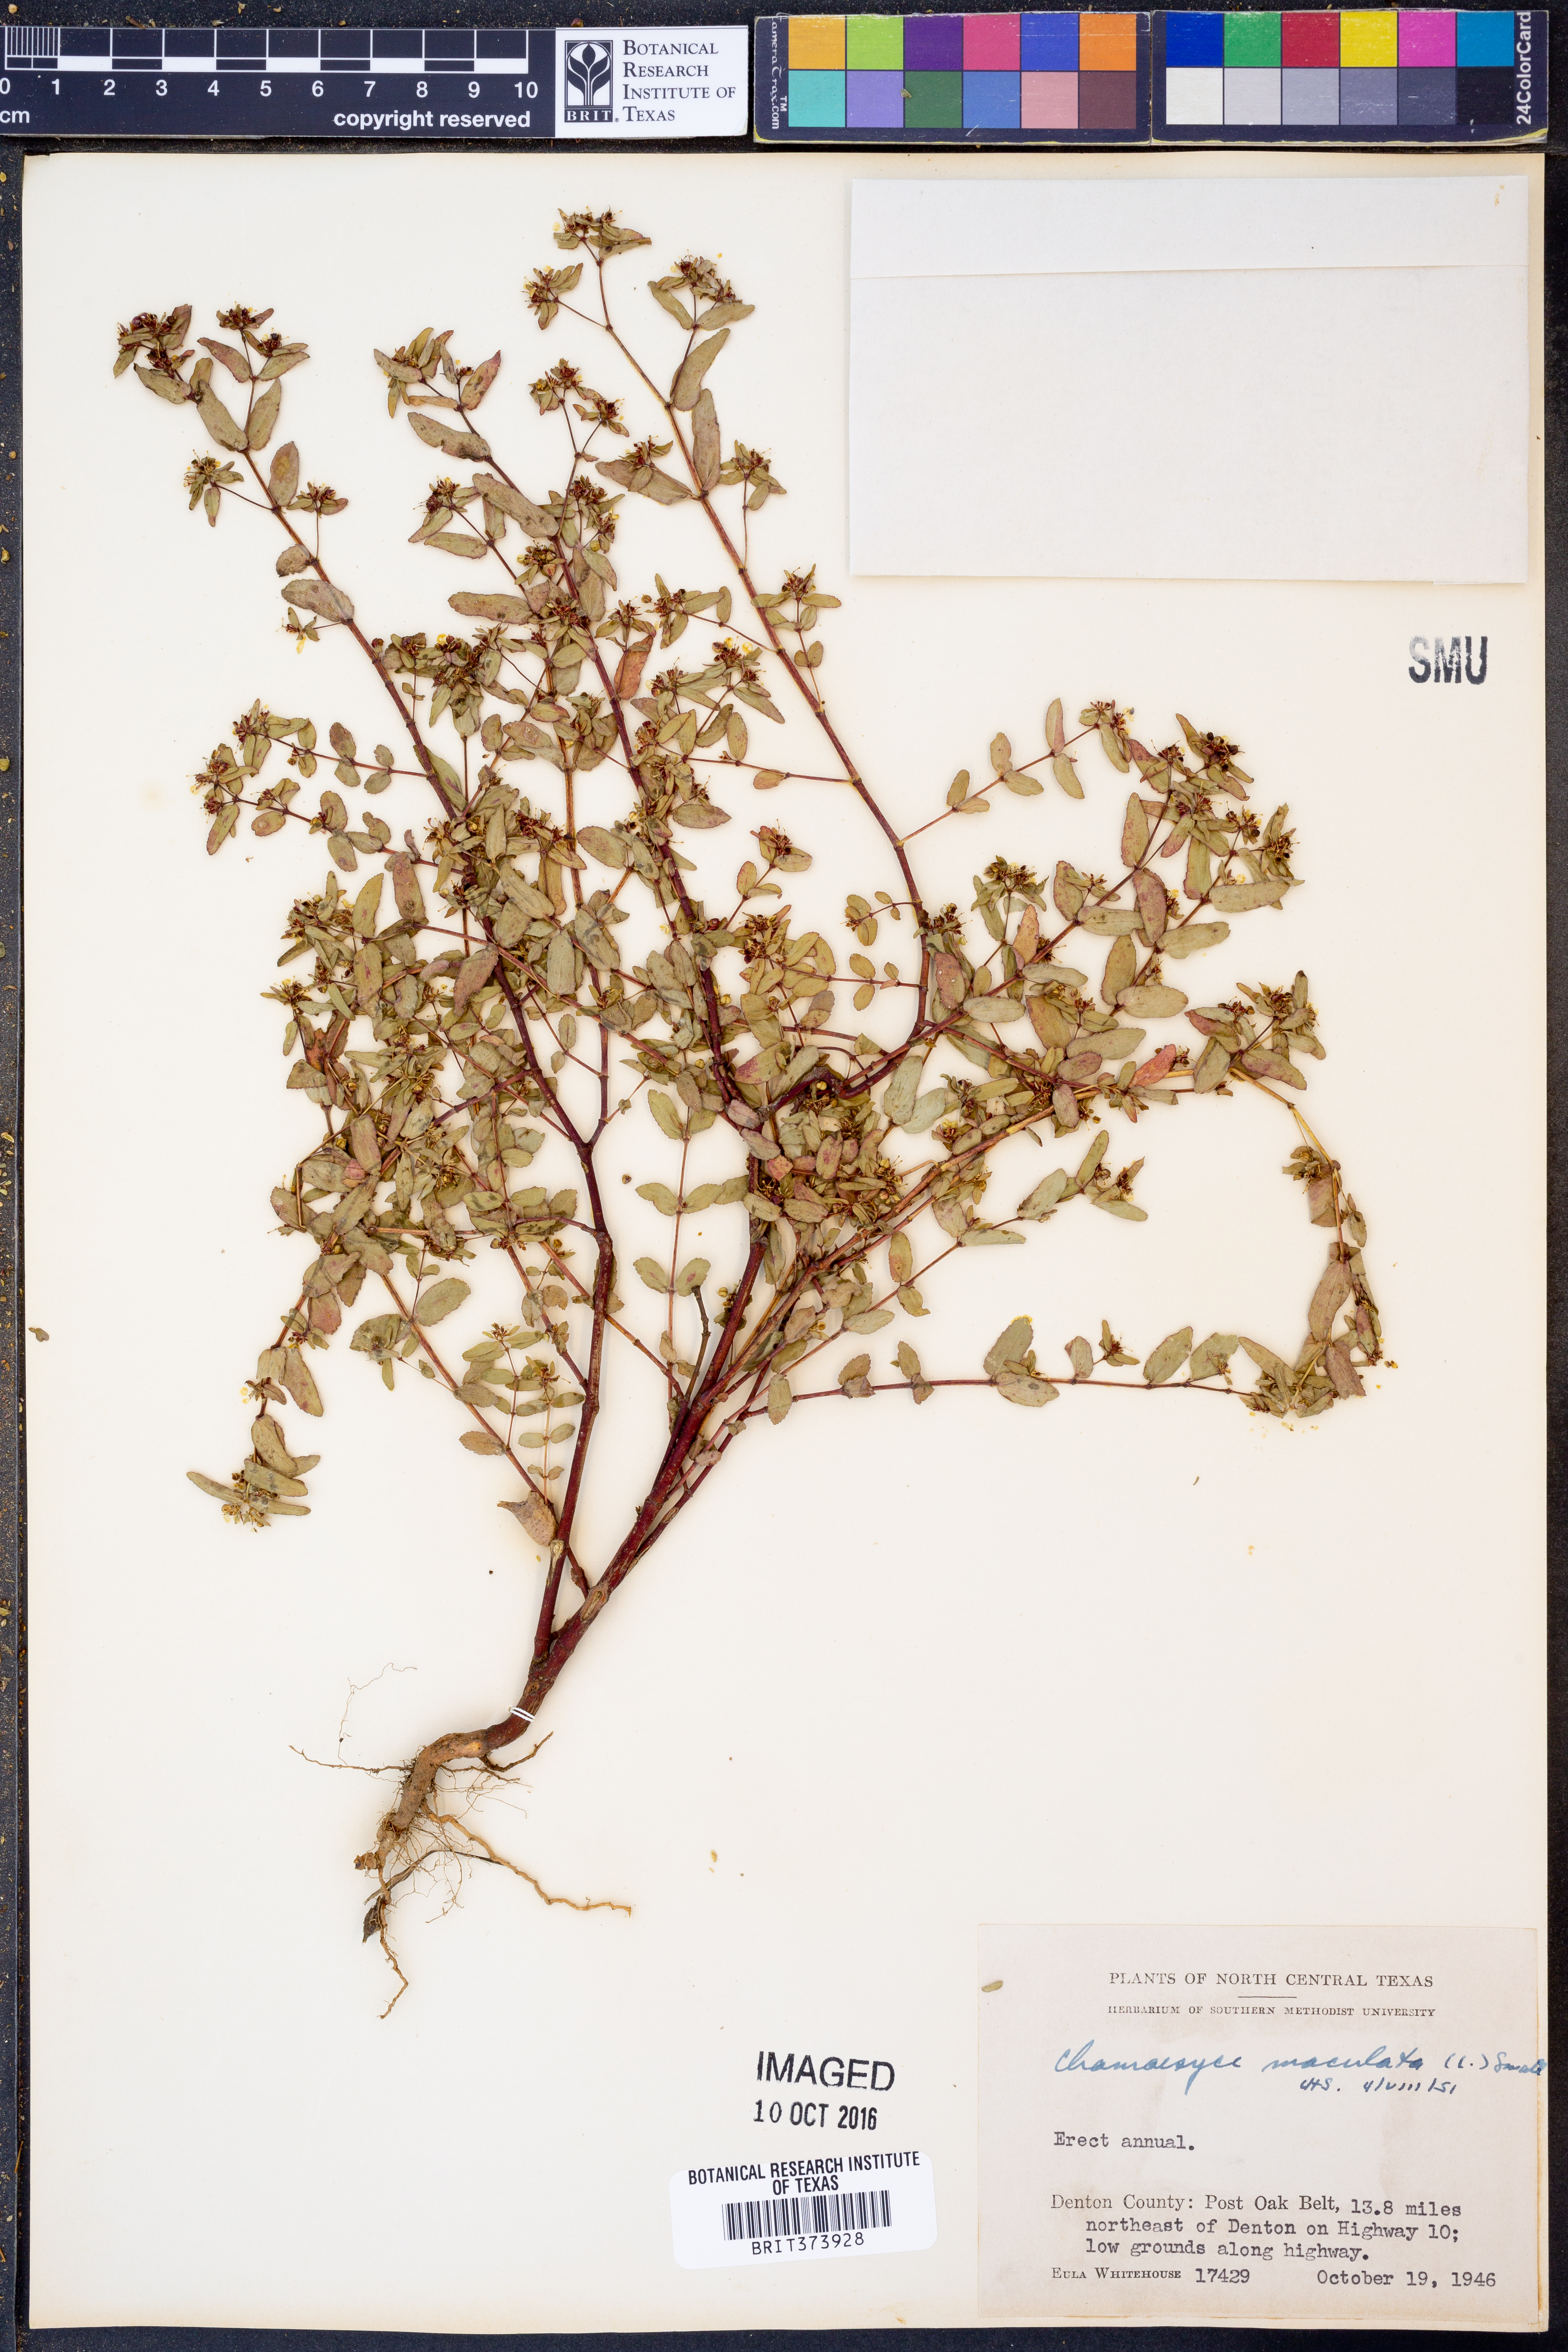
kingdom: Plantae
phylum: Tracheophyta
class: Magnoliopsida
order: Malpighiales
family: Euphorbiaceae
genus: Euphorbia
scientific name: Euphorbia maculata
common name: Spotted spurge
